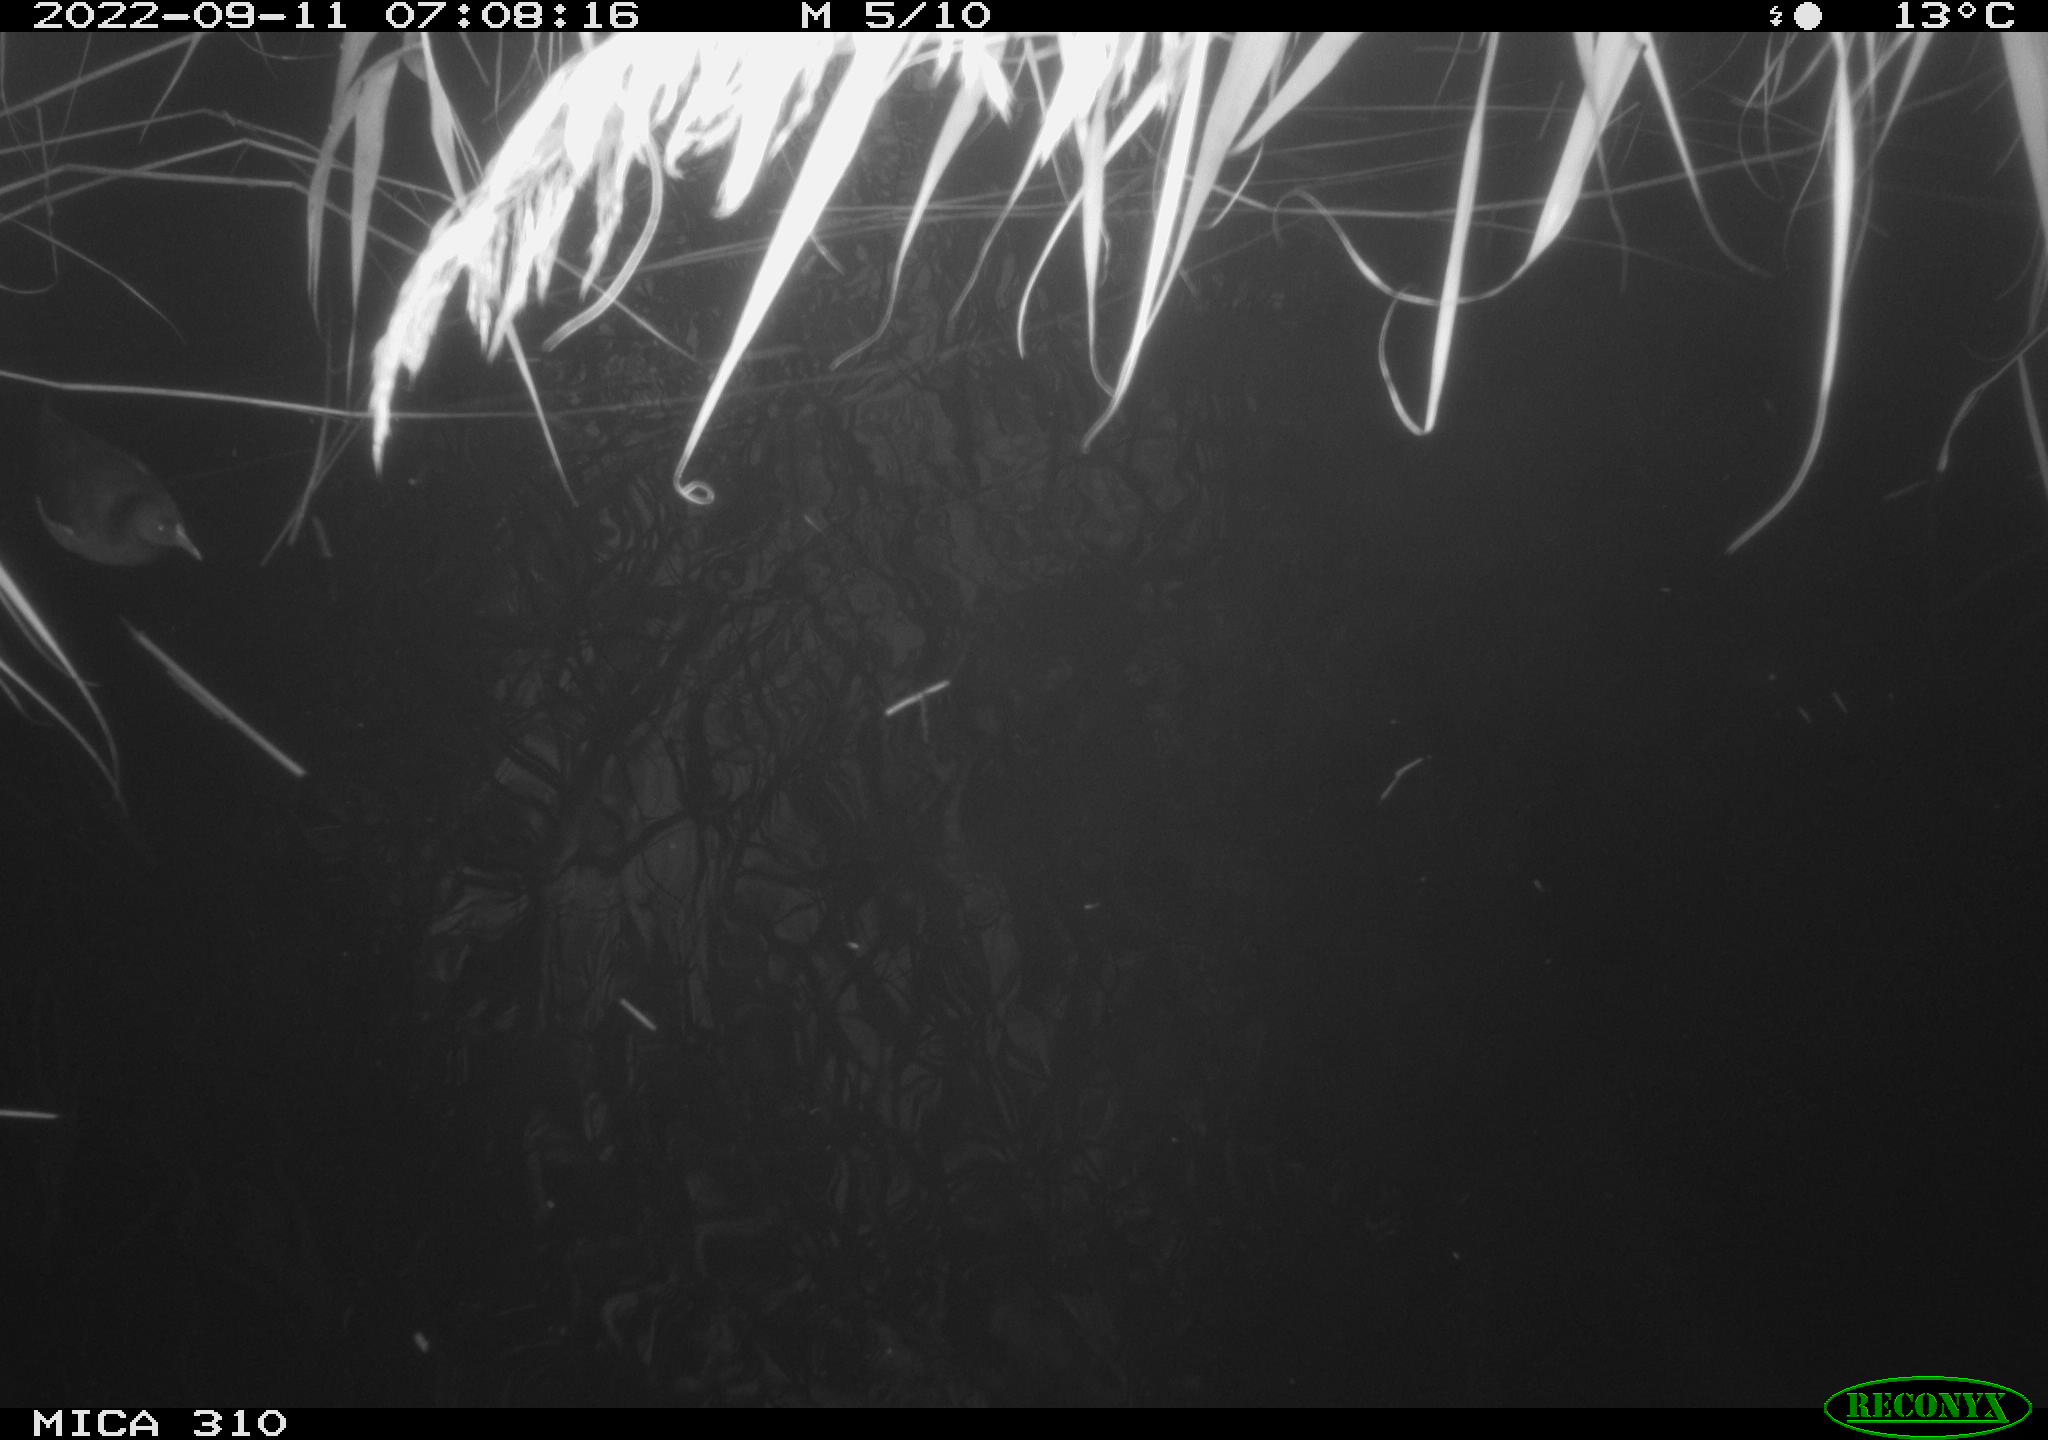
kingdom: Animalia
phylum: Chordata
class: Aves
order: Gruiformes
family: Rallidae
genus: Gallinula
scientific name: Gallinula chloropus
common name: Common moorhen
